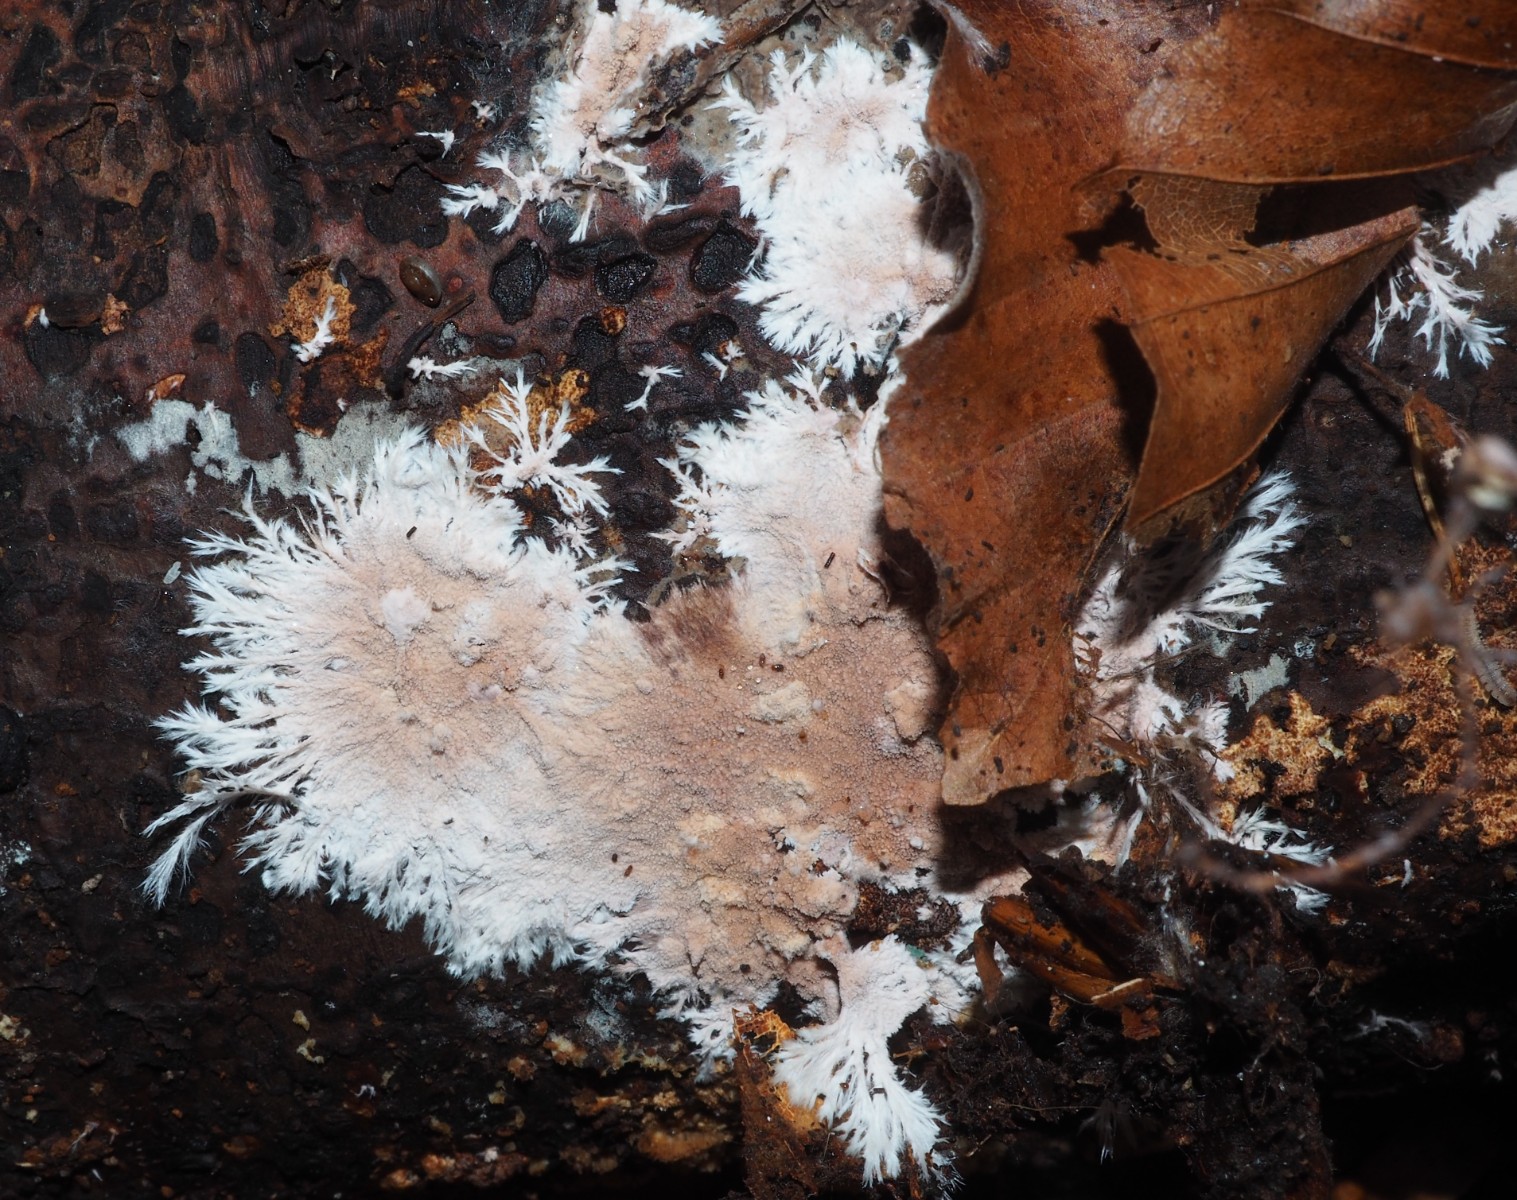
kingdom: Fungi
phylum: Basidiomycota
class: Agaricomycetes
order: Polyporales
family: Steccherinaceae
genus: Steccherinum
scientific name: Steccherinum fimbriatum
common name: trådet skønpig
